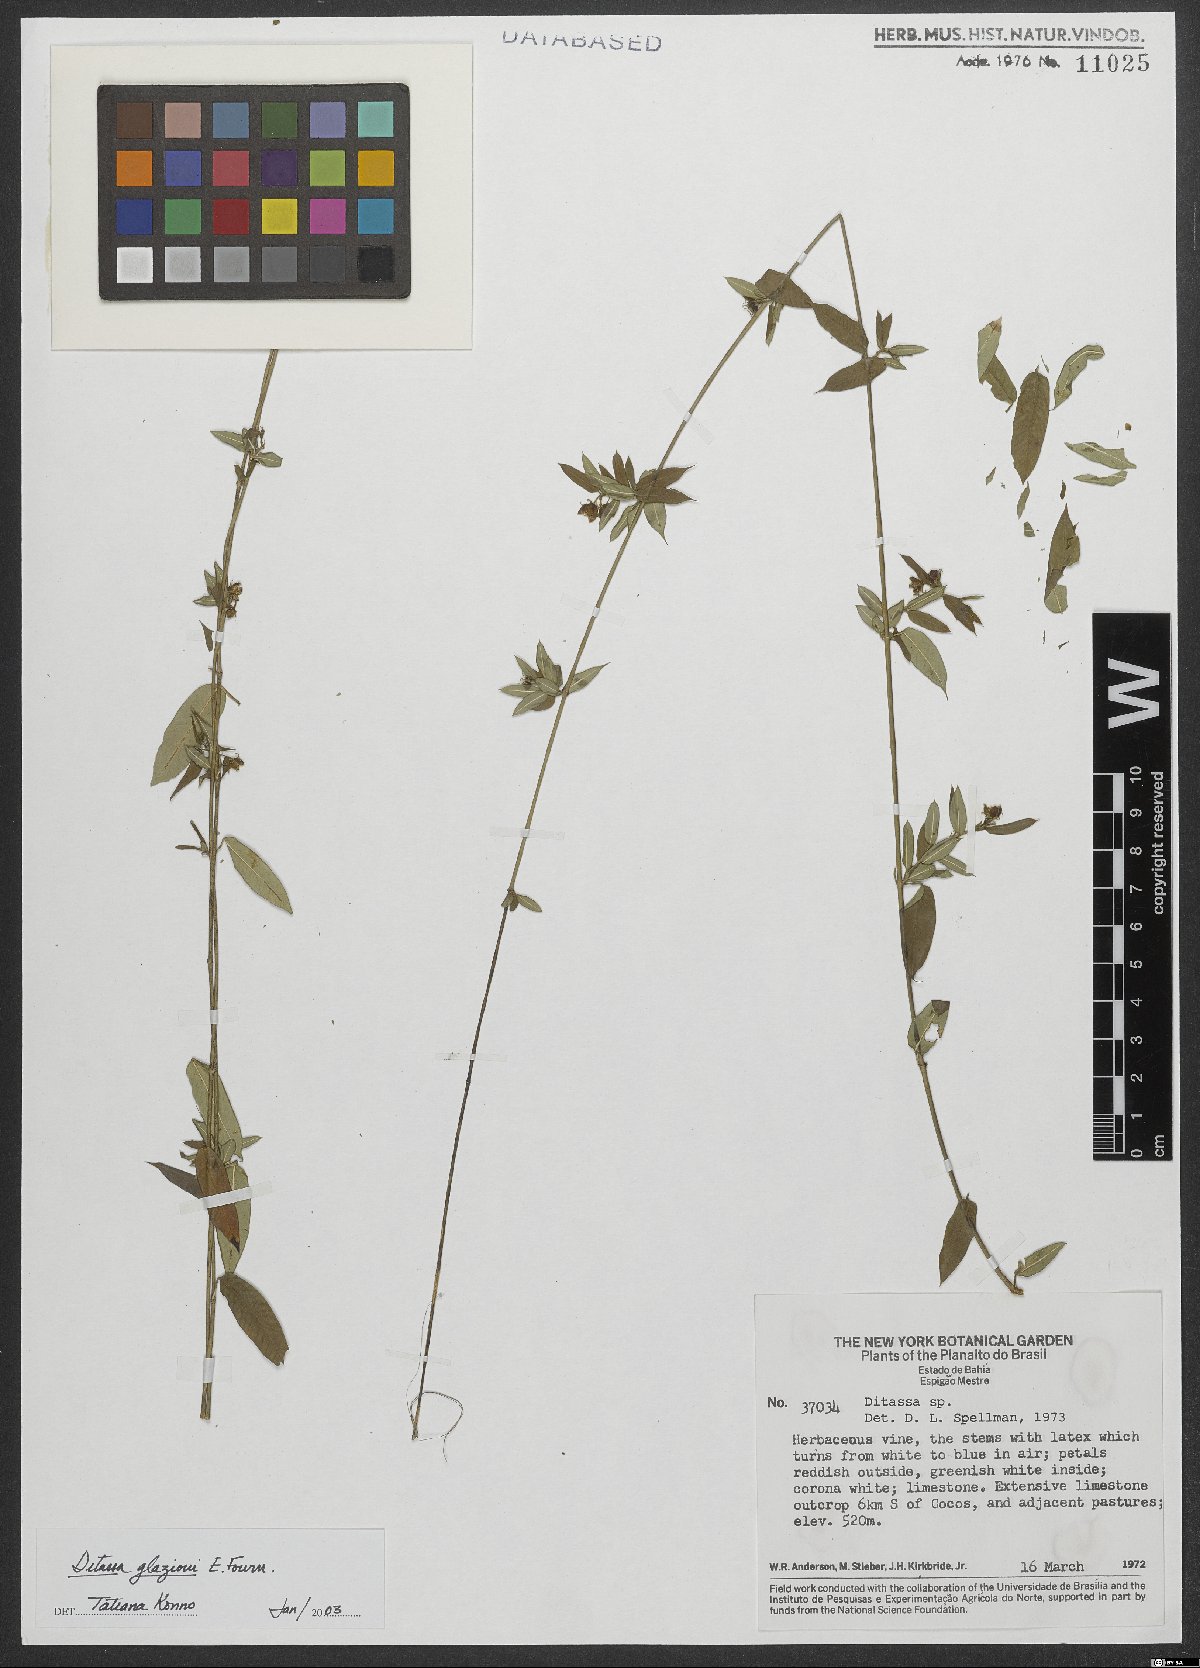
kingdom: Plantae
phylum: Tracheophyta
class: Magnoliopsida
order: Gentianales
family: Apocynaceae
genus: Ditassa
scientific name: Ditassa glaziovi
